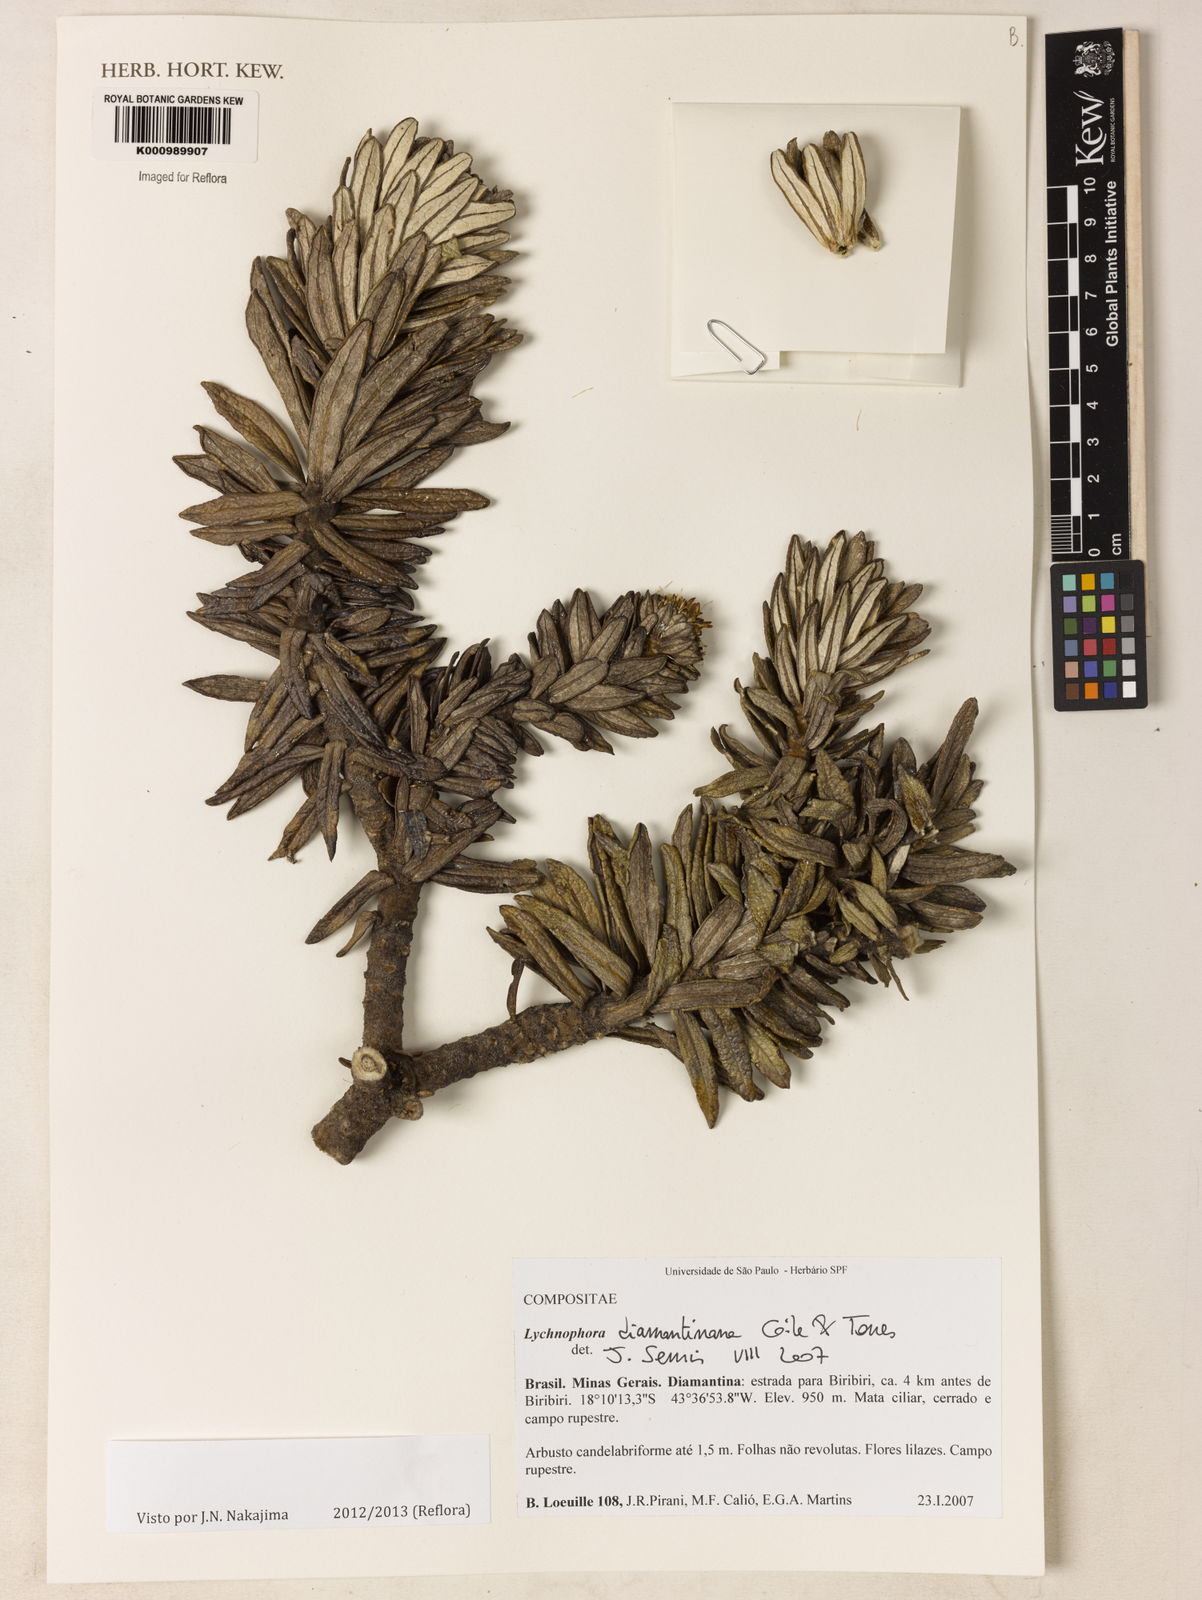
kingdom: Plantae
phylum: Tracheophyta
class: Magnoliopsida
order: Asterales
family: Asteraceae
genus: Lychnophora
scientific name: Lychnophora diamantinana
